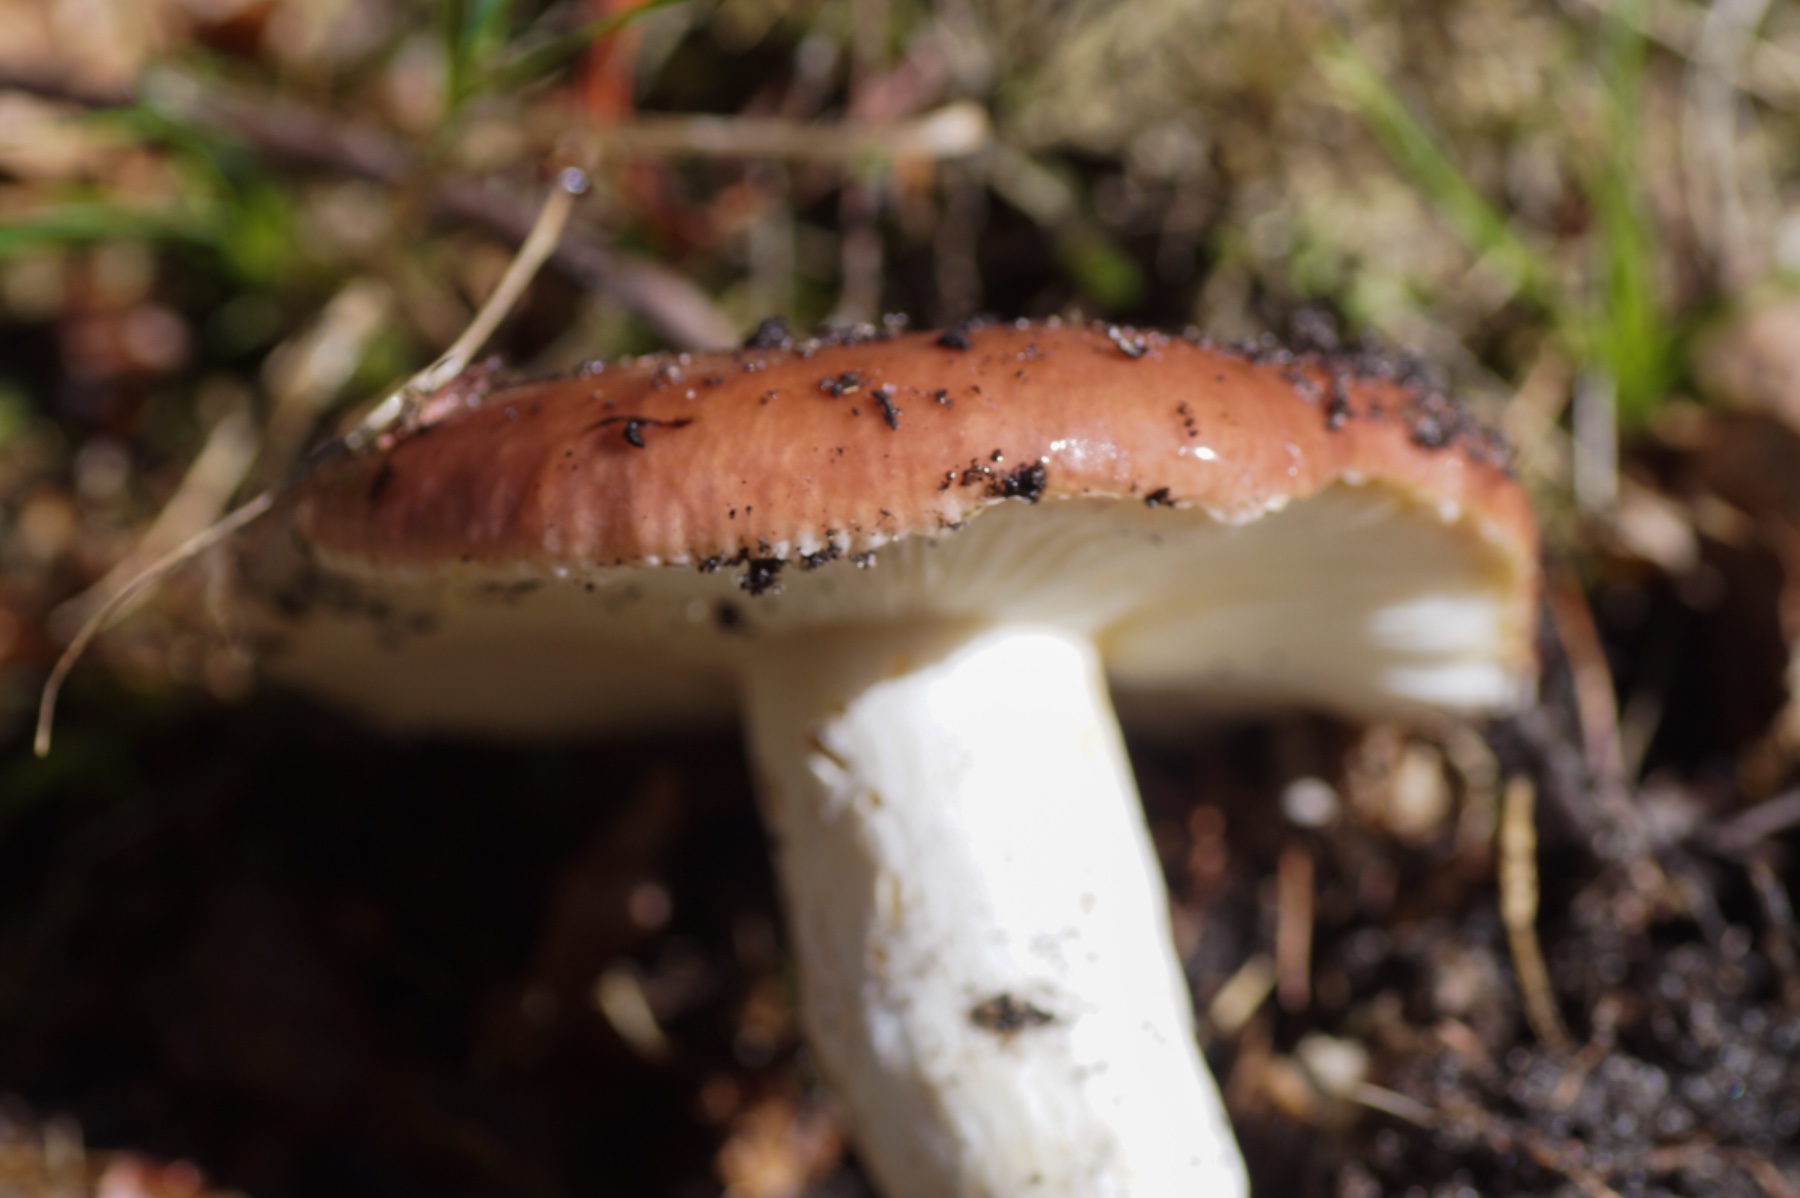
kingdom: Fungi
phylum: Basidiomycota
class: Agaricomycetes
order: Russulales
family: Russulaceae
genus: Russula
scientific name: Russula vesca
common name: spiselig skørhat
